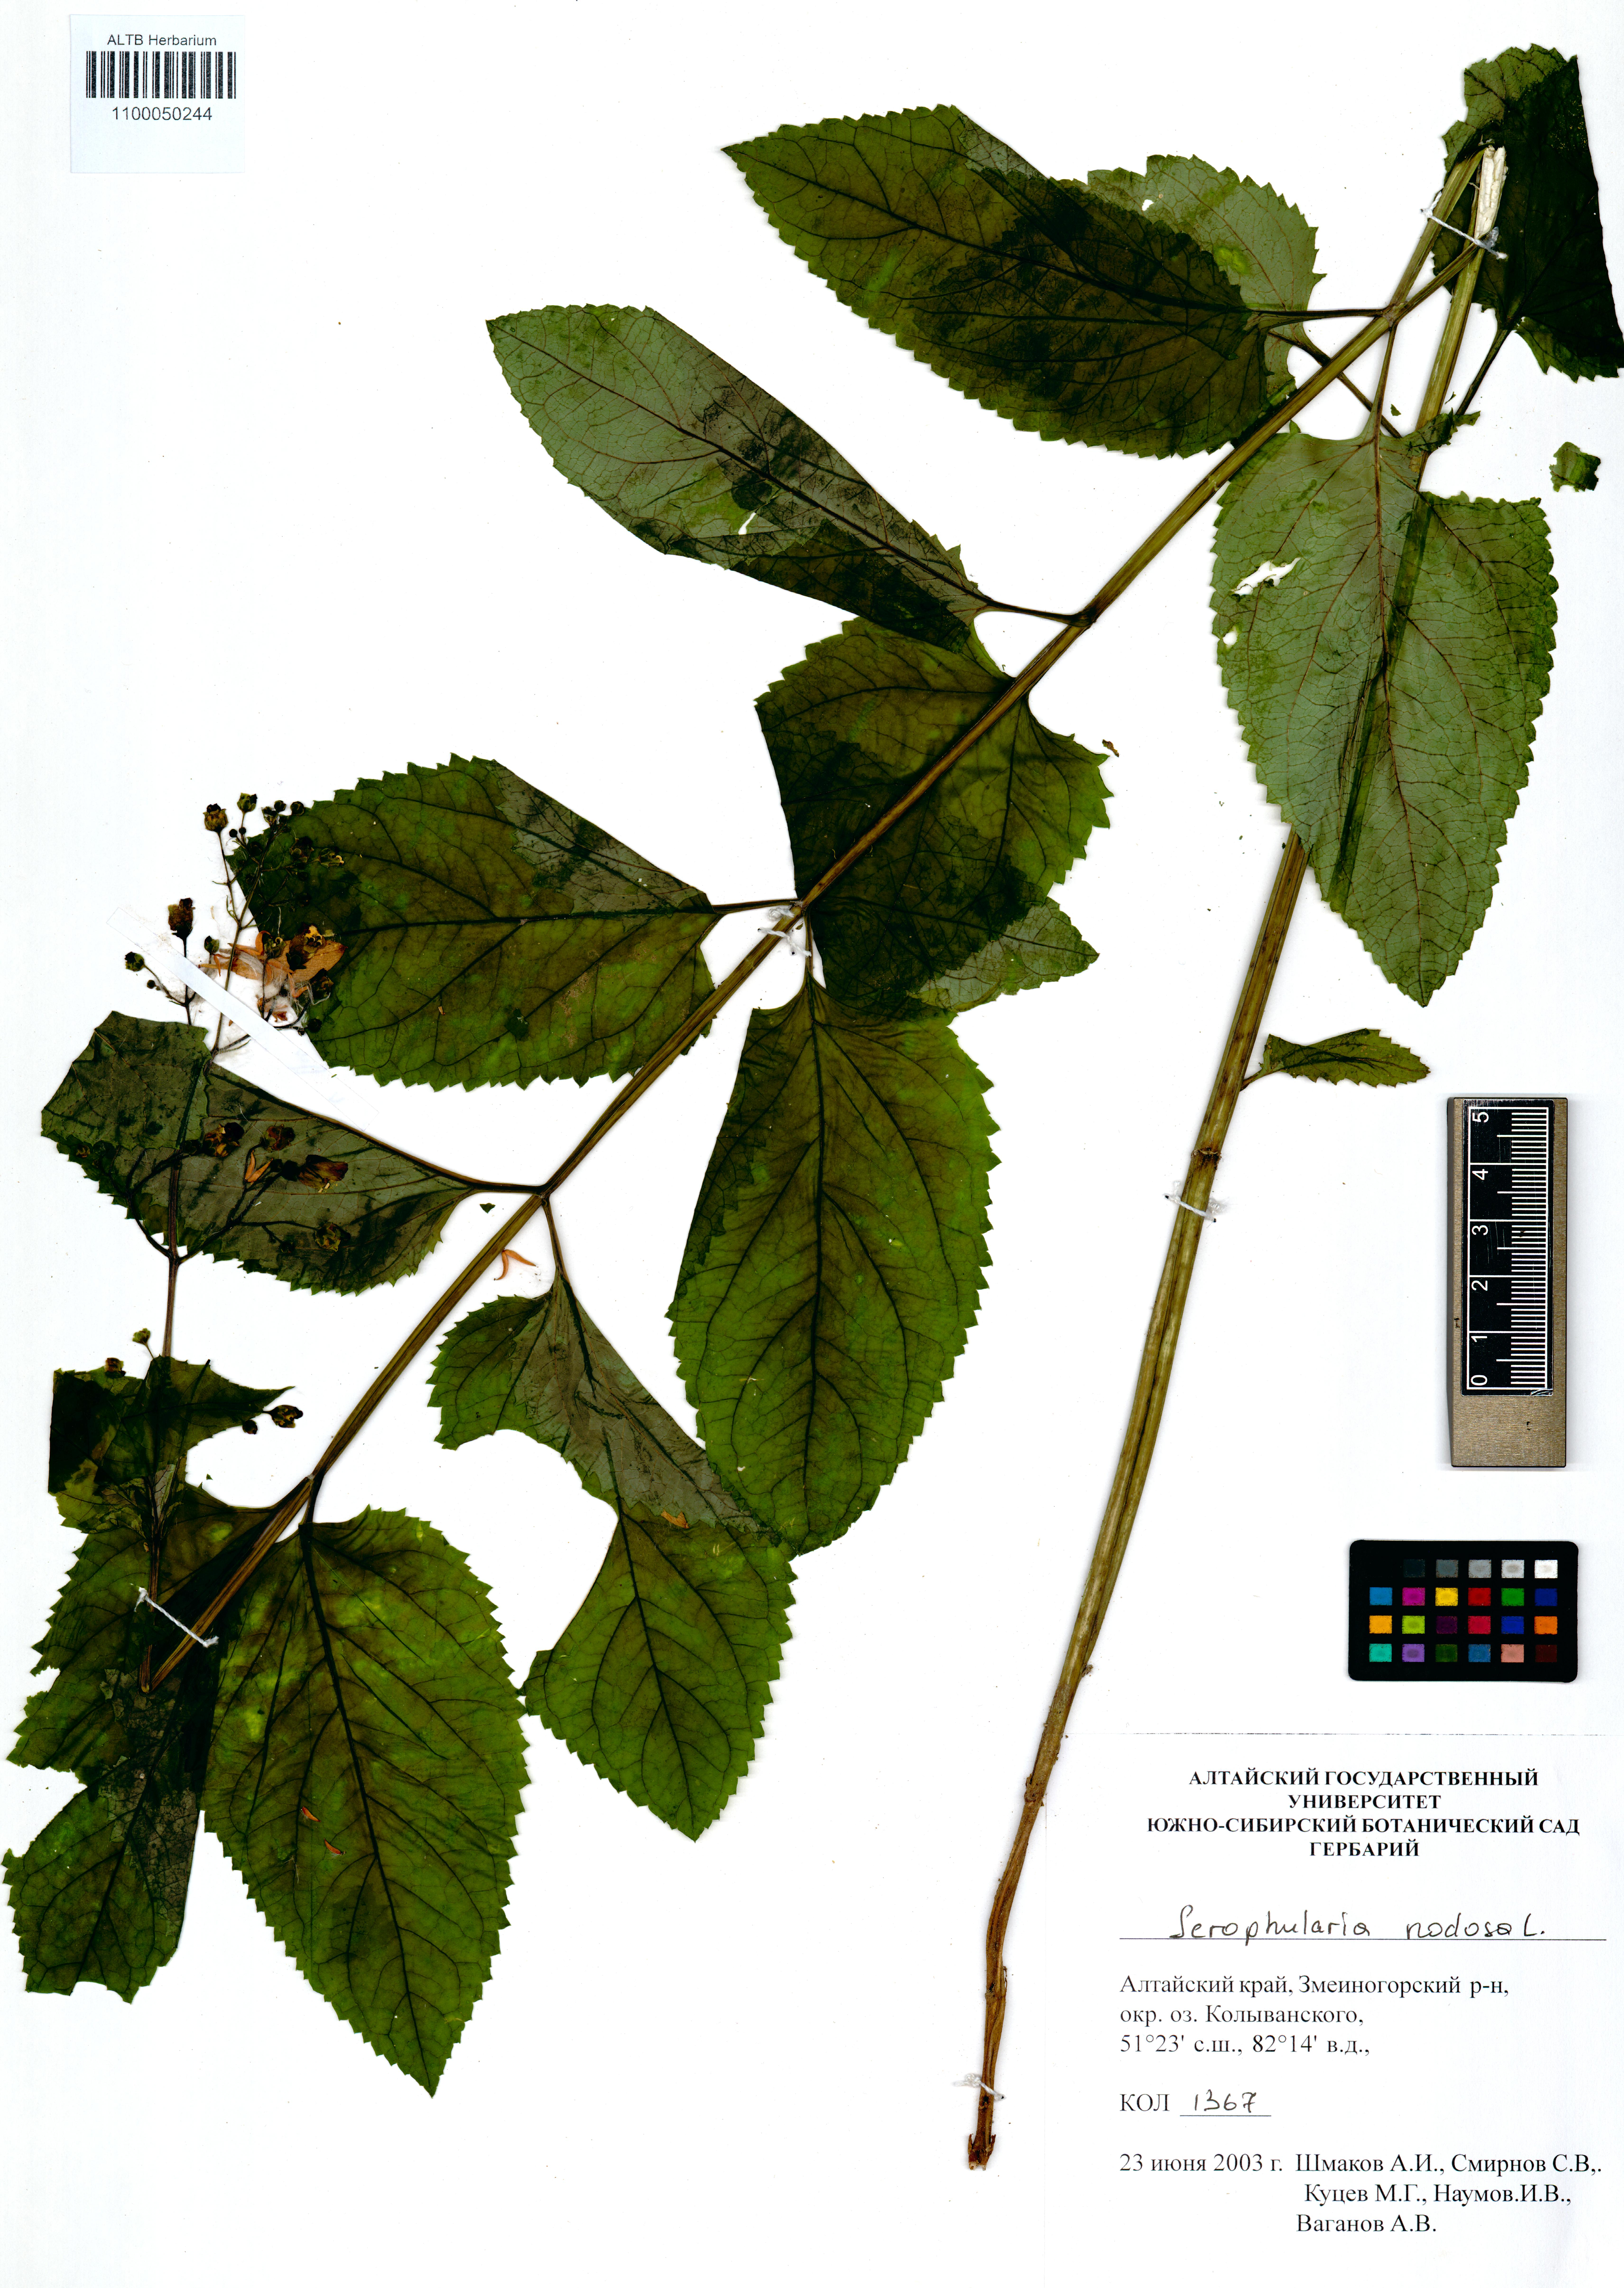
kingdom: Plantae
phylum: Tracheophyta
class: Magnoliopsida
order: Lamiales
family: Scrophulariaceae
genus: Scrophularia
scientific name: Scrophularia nodosa
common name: Common figwort
